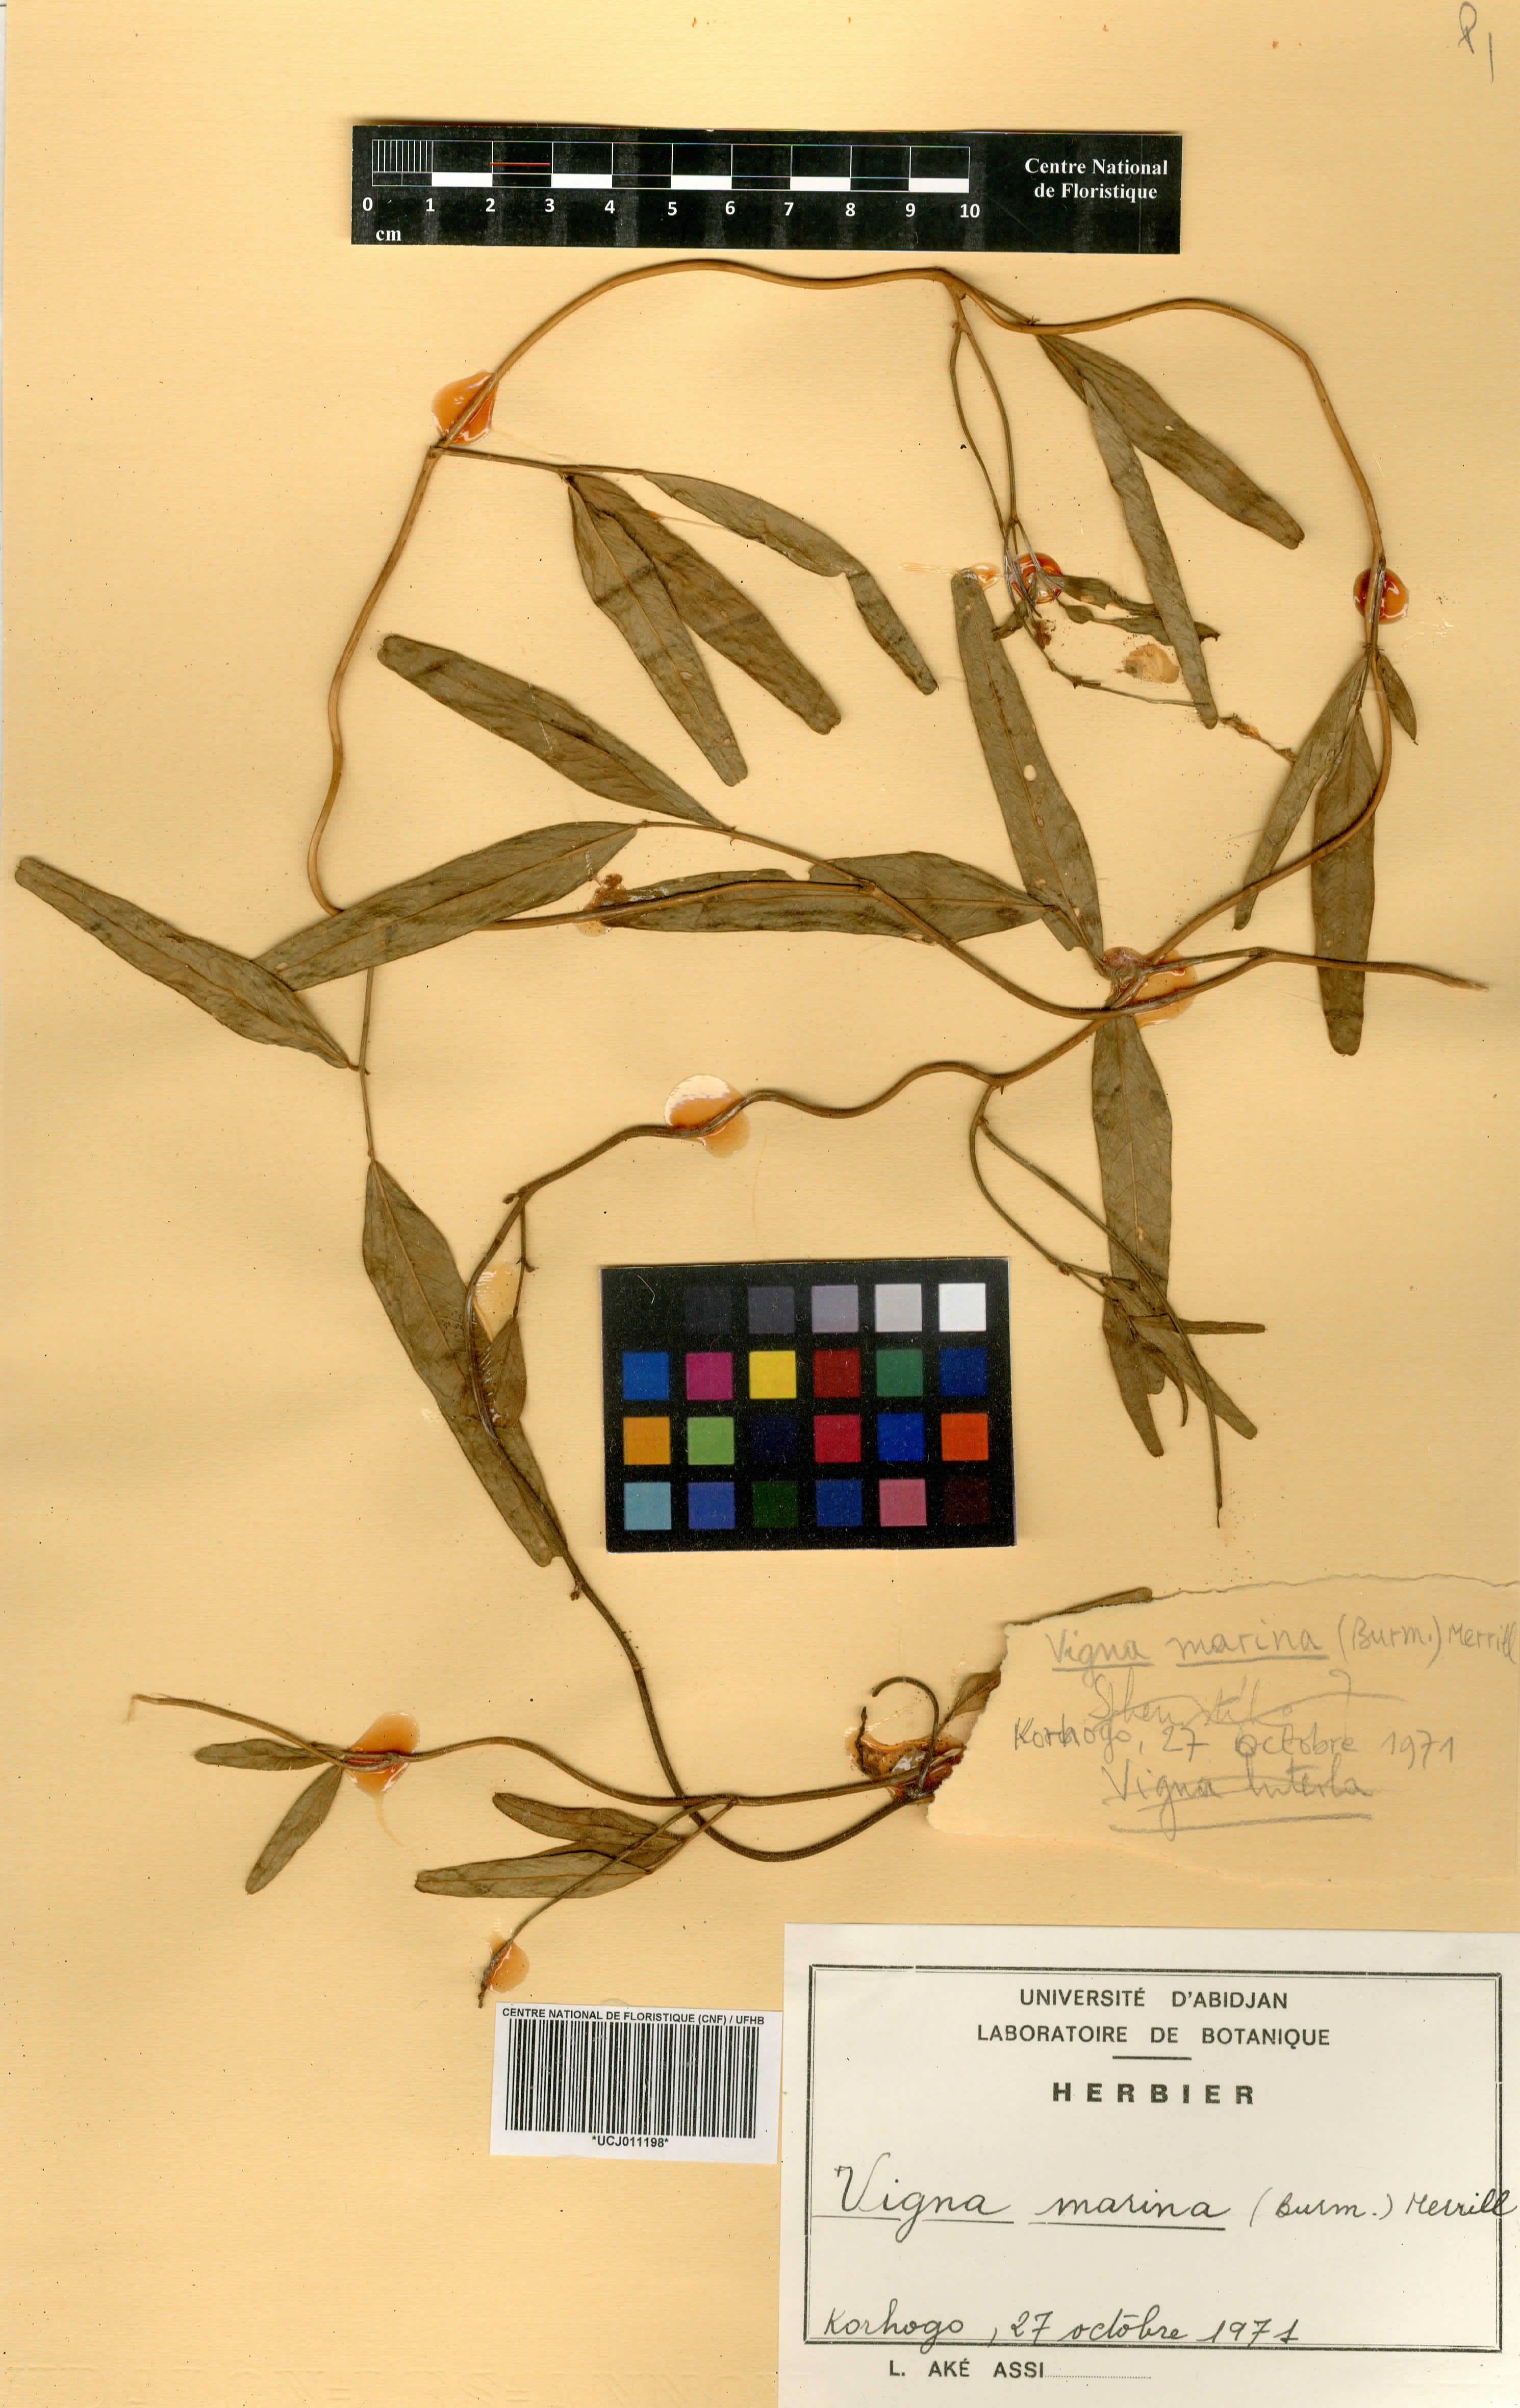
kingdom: Plantae
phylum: Tracheophyta
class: Magnoliopsida
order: Fabales
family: Fabaceae
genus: Vigna
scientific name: Vigna marina
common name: Dune-bean
